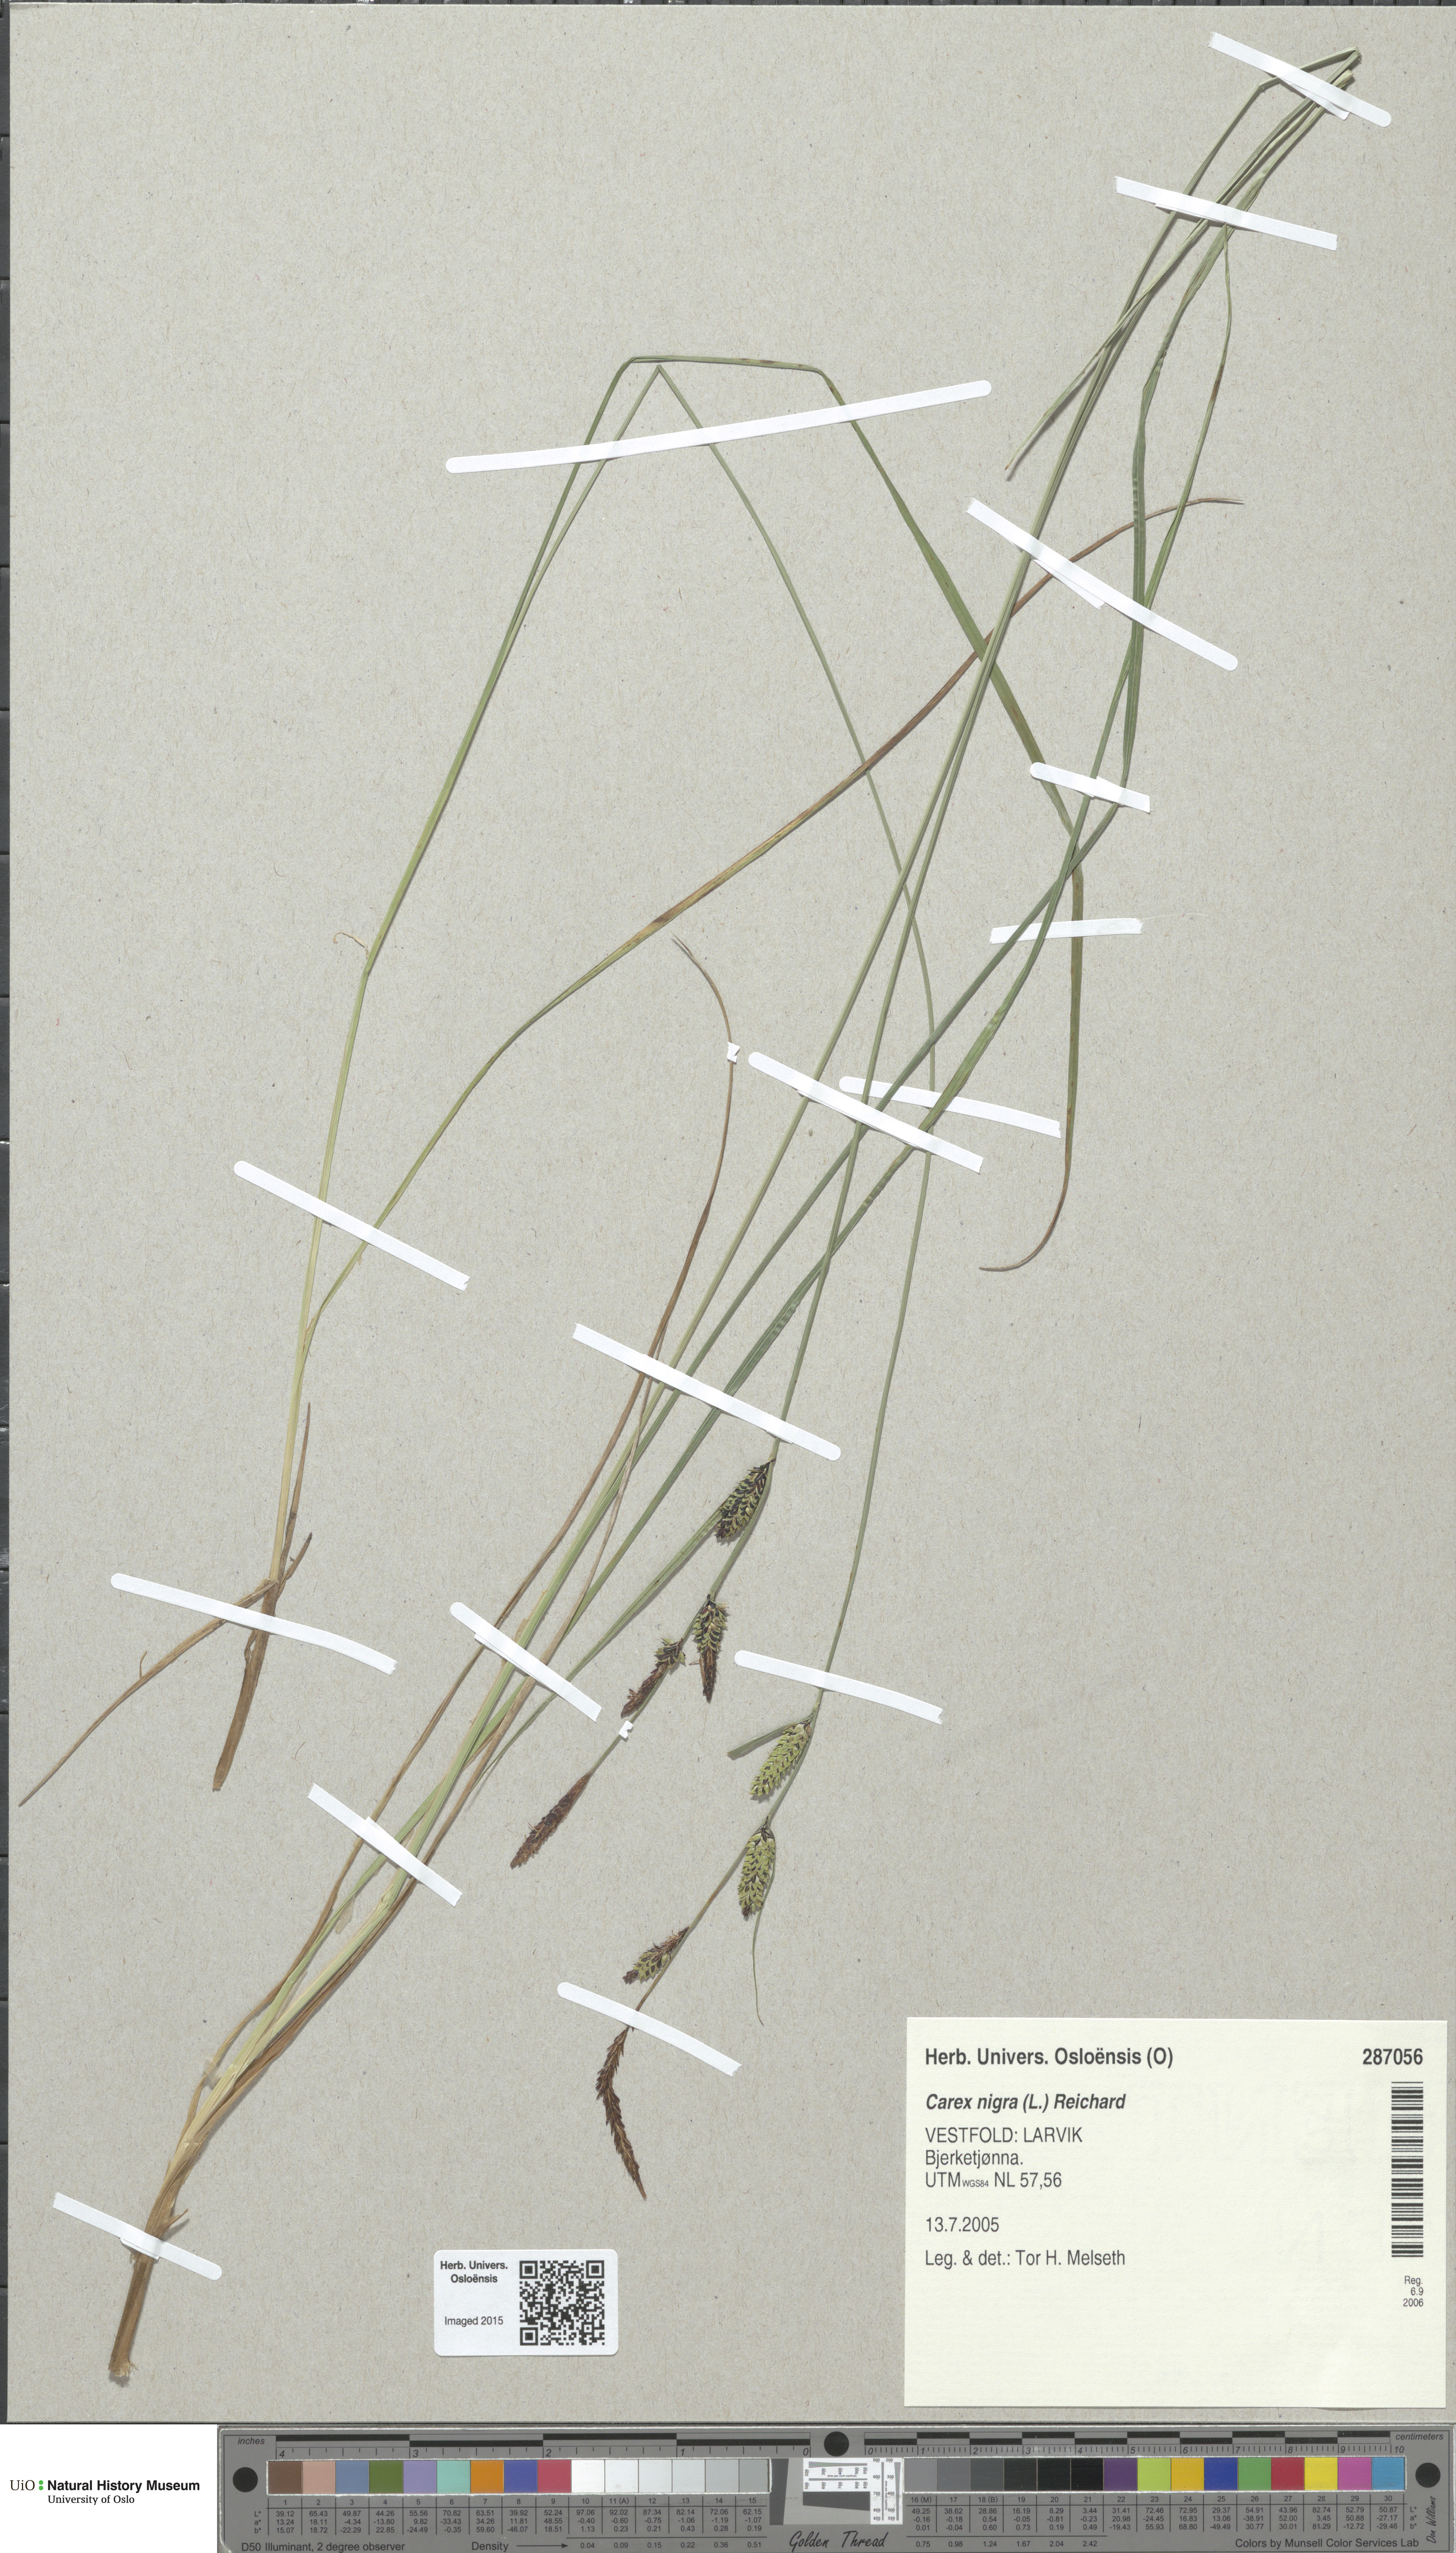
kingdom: Plantae
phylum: Tracheophyta
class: Liliopsida
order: Poales
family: Cyperaceae
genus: Carex
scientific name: Carex nigra
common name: Common sedge
